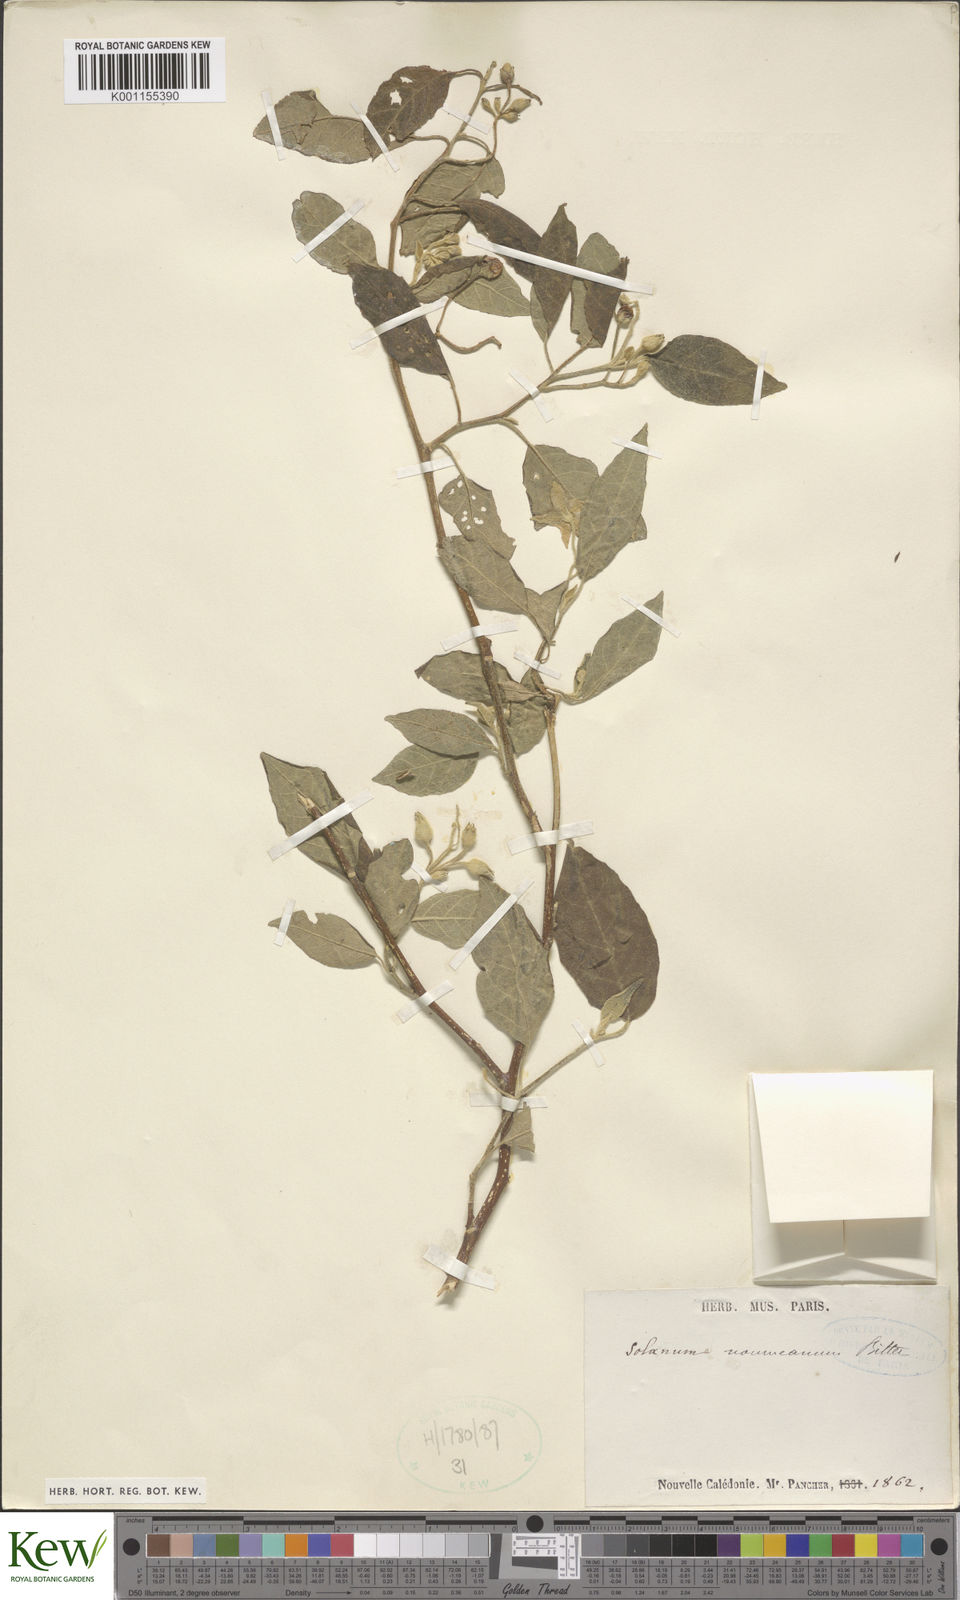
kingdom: Plantae
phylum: Tracheophyta
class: Magnoliopsida
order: Solanales
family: Solanaceae
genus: Solanum
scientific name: Solanum austrocaledonicum
